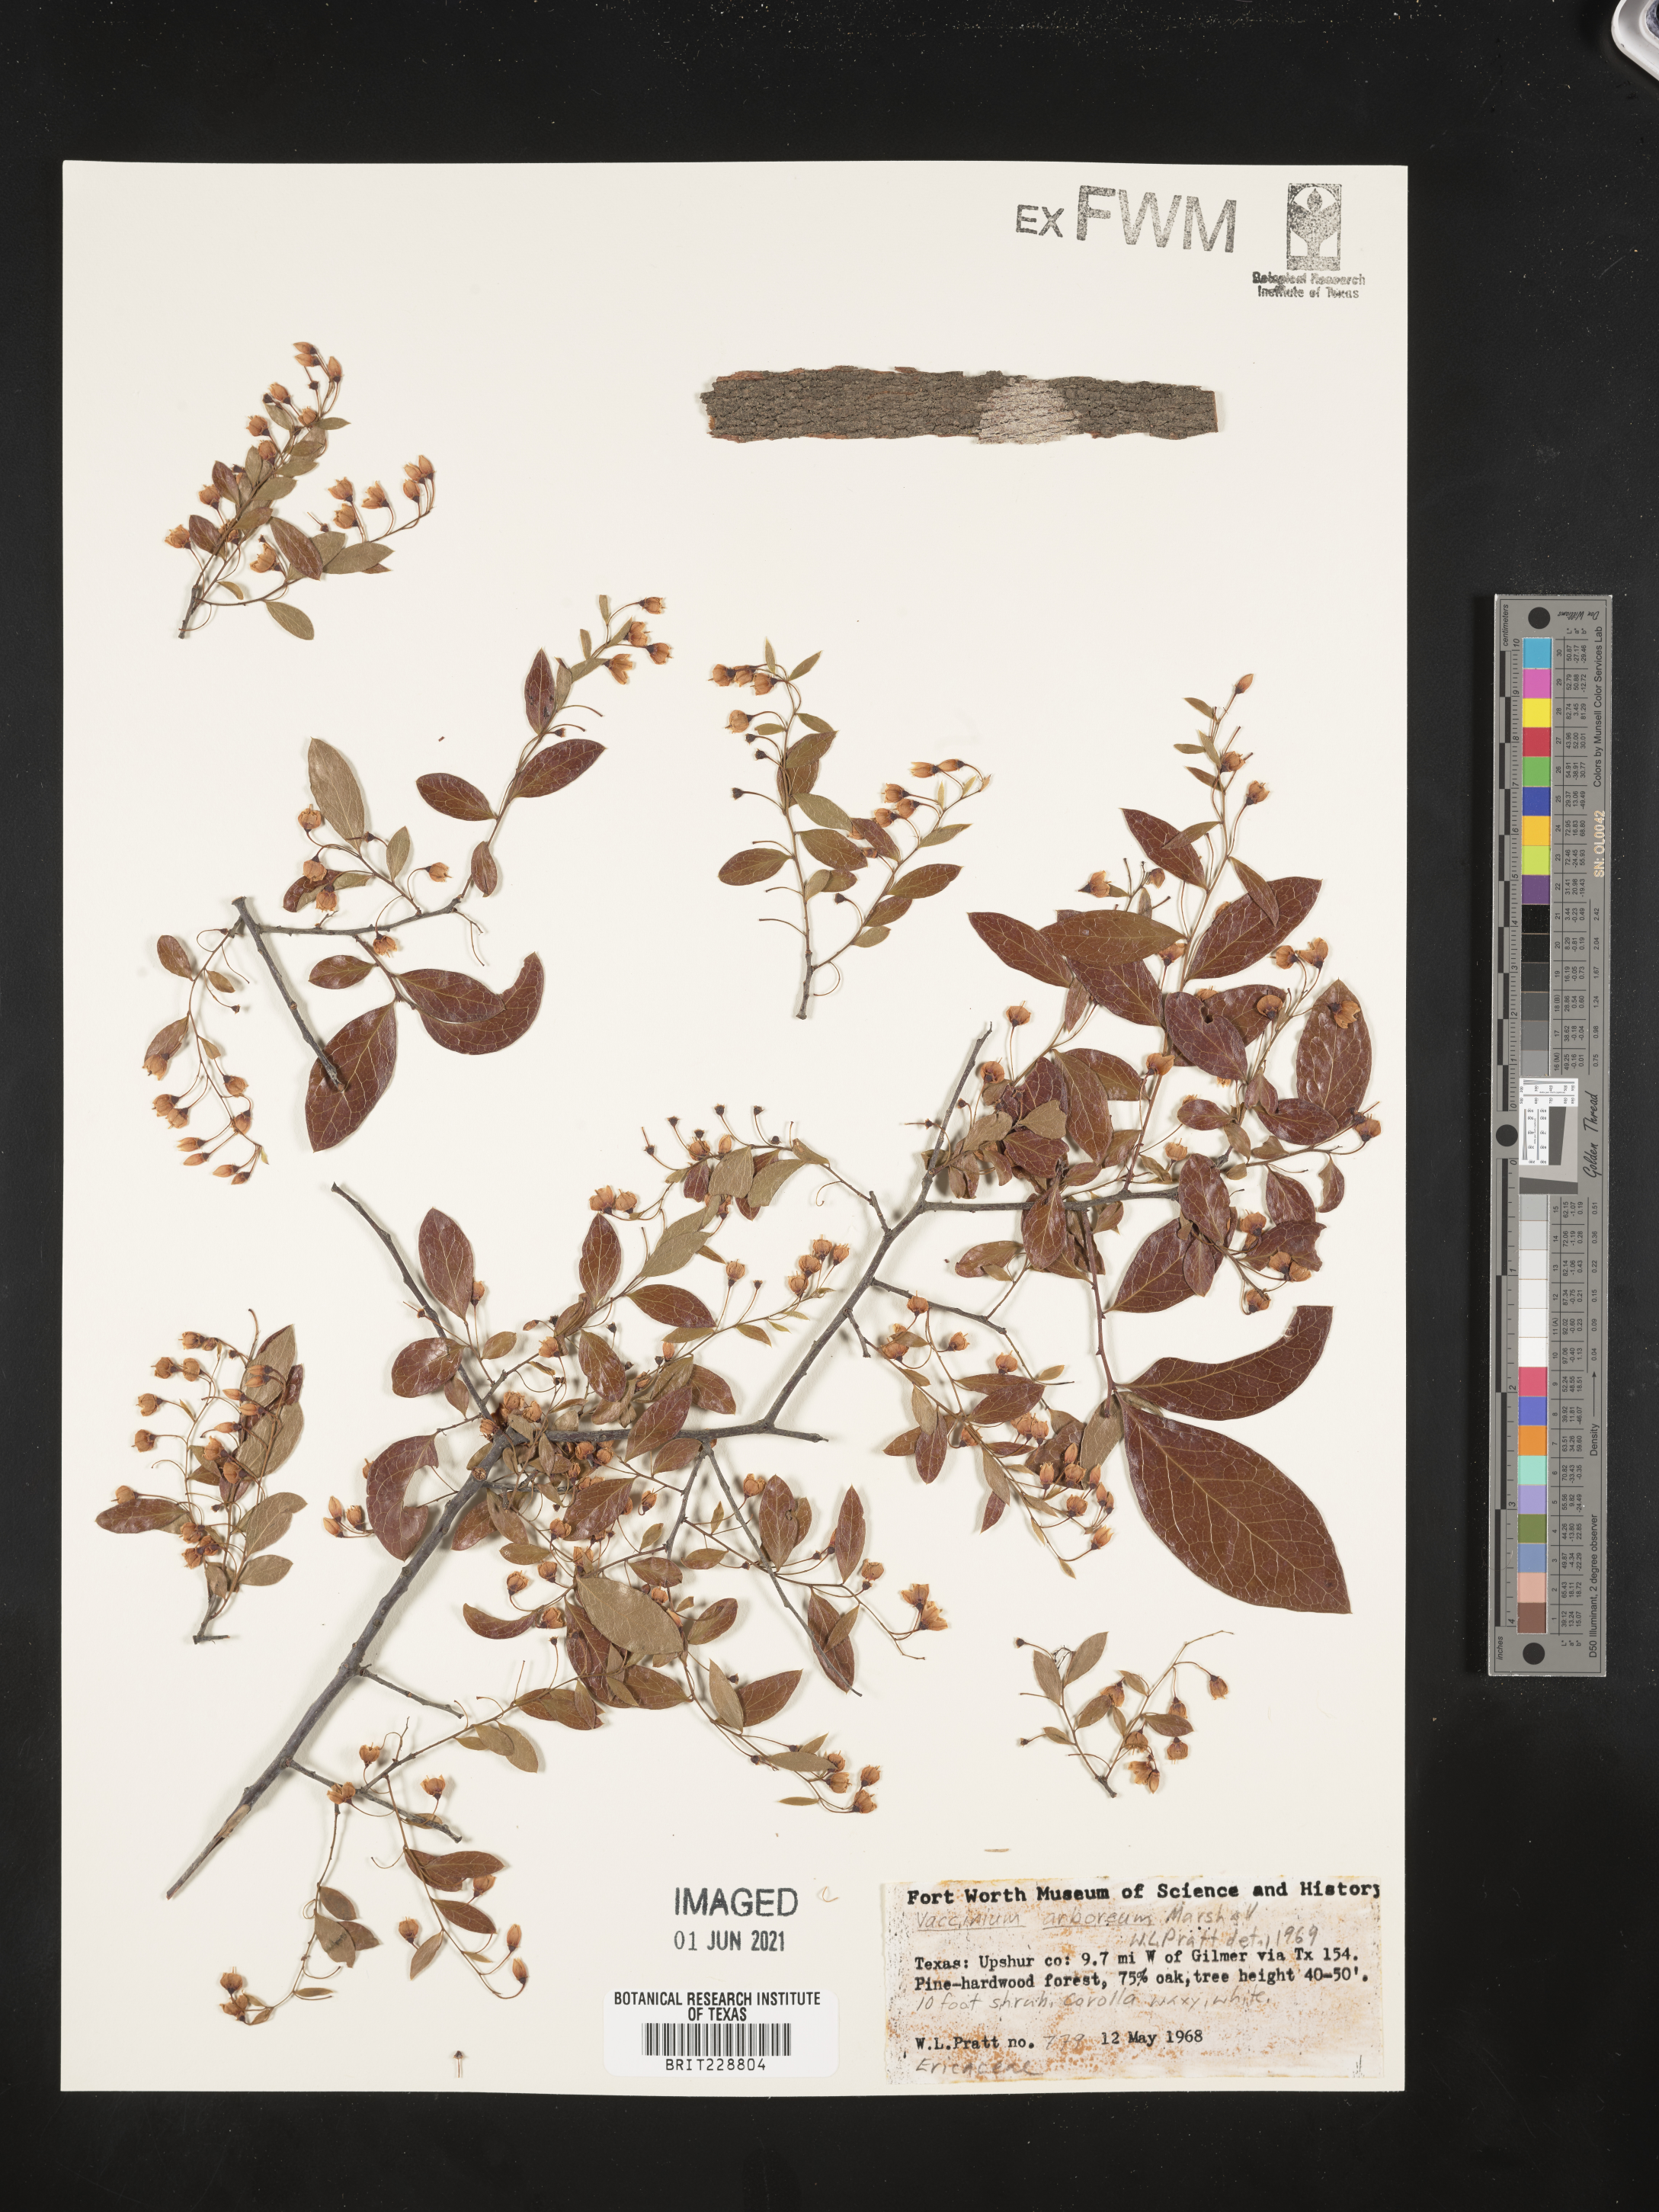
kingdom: Plantae
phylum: Tracheophyta
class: Magnoliopsida
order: Ericales
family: Ericaceae
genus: Vaccinium
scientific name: Vaccinium arboreum
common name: Farkleberry
